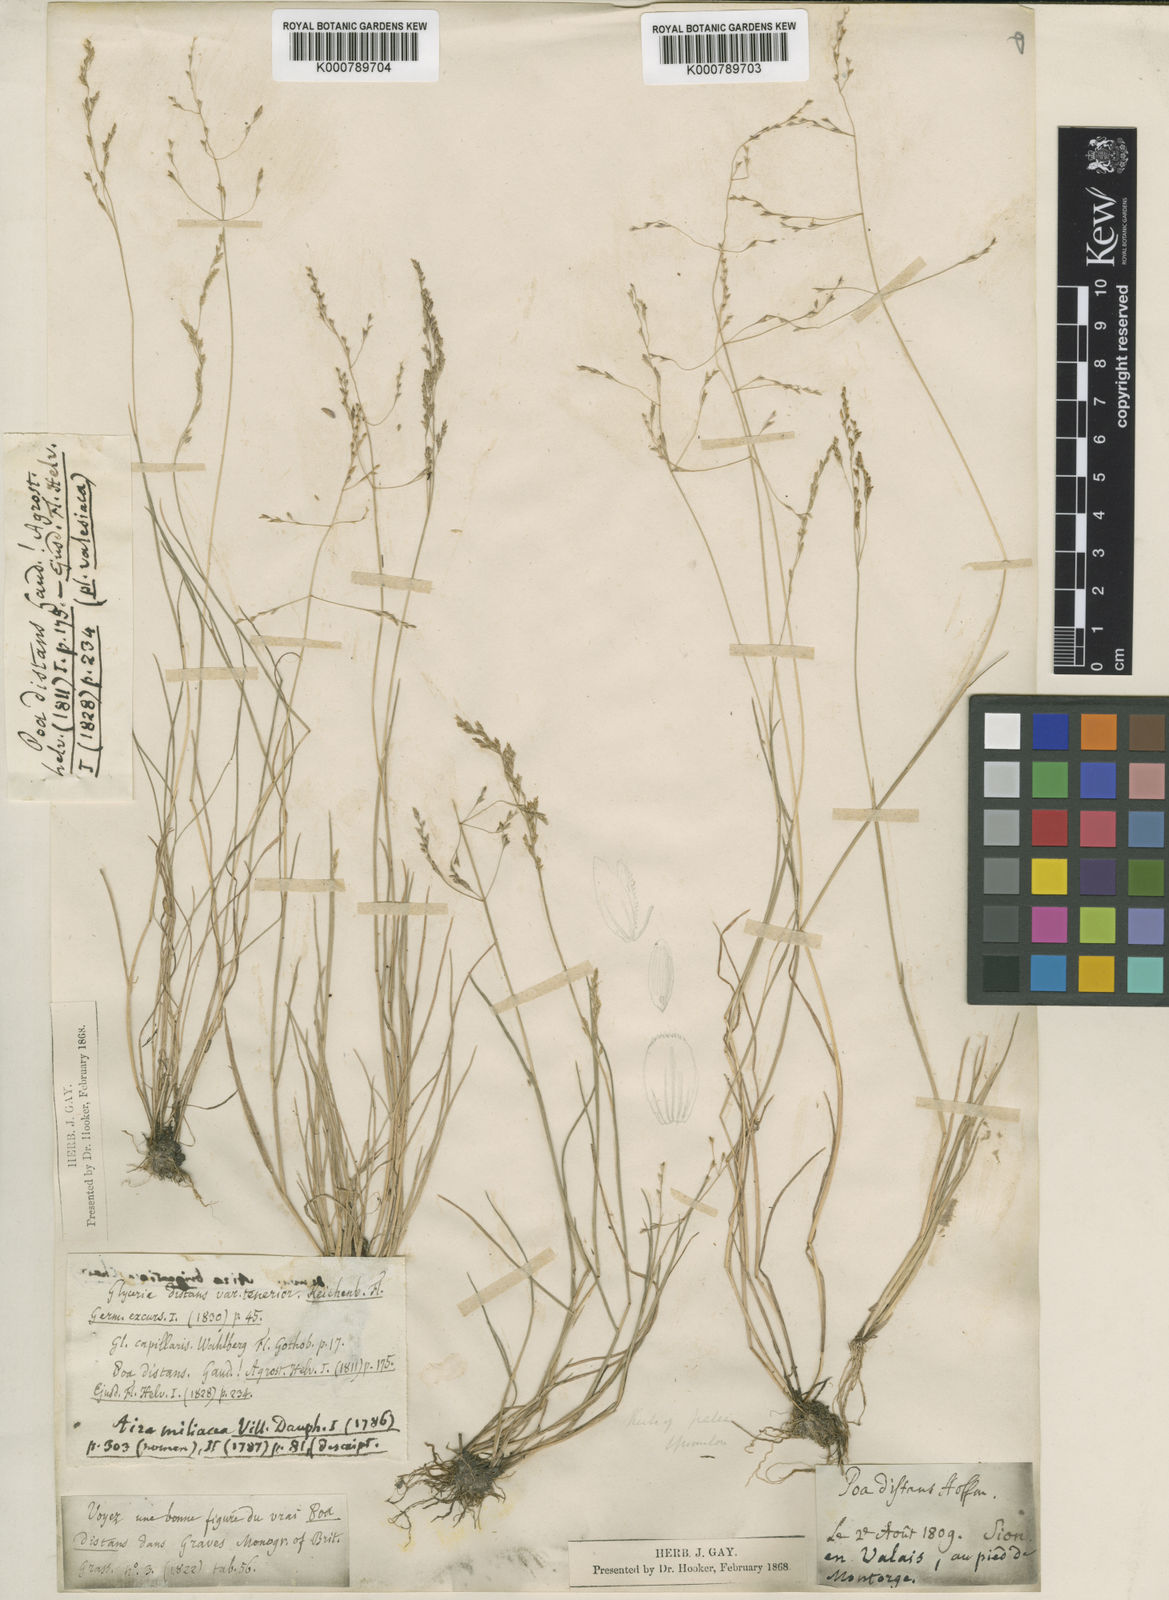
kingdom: Plantae
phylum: Tracheophyta
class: Liliopsida
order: Poales
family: Poaceae
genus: Puccinellia
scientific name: Puccinellia distans
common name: Weeping alkaligrass
